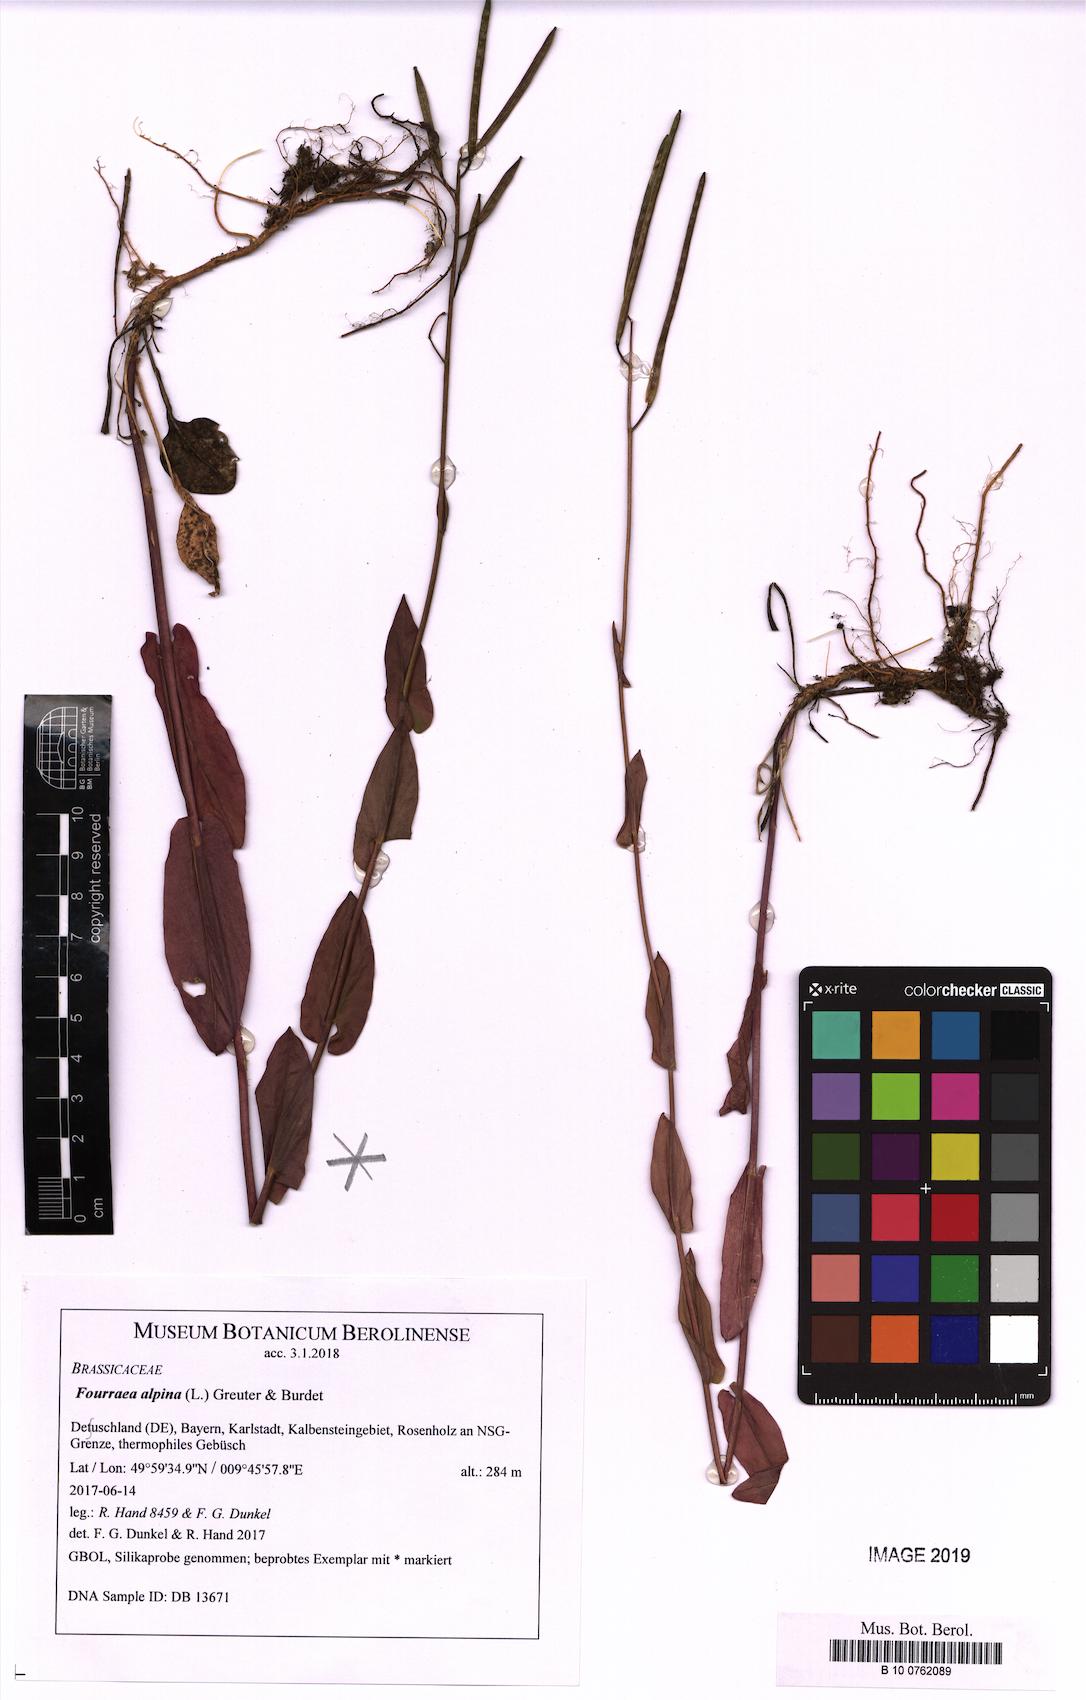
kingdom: Plantae
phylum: Tracheophyta
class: Magnoliopsida
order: Brassicales
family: Brassicaceae
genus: Fourraea
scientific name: Fourraea alpina
